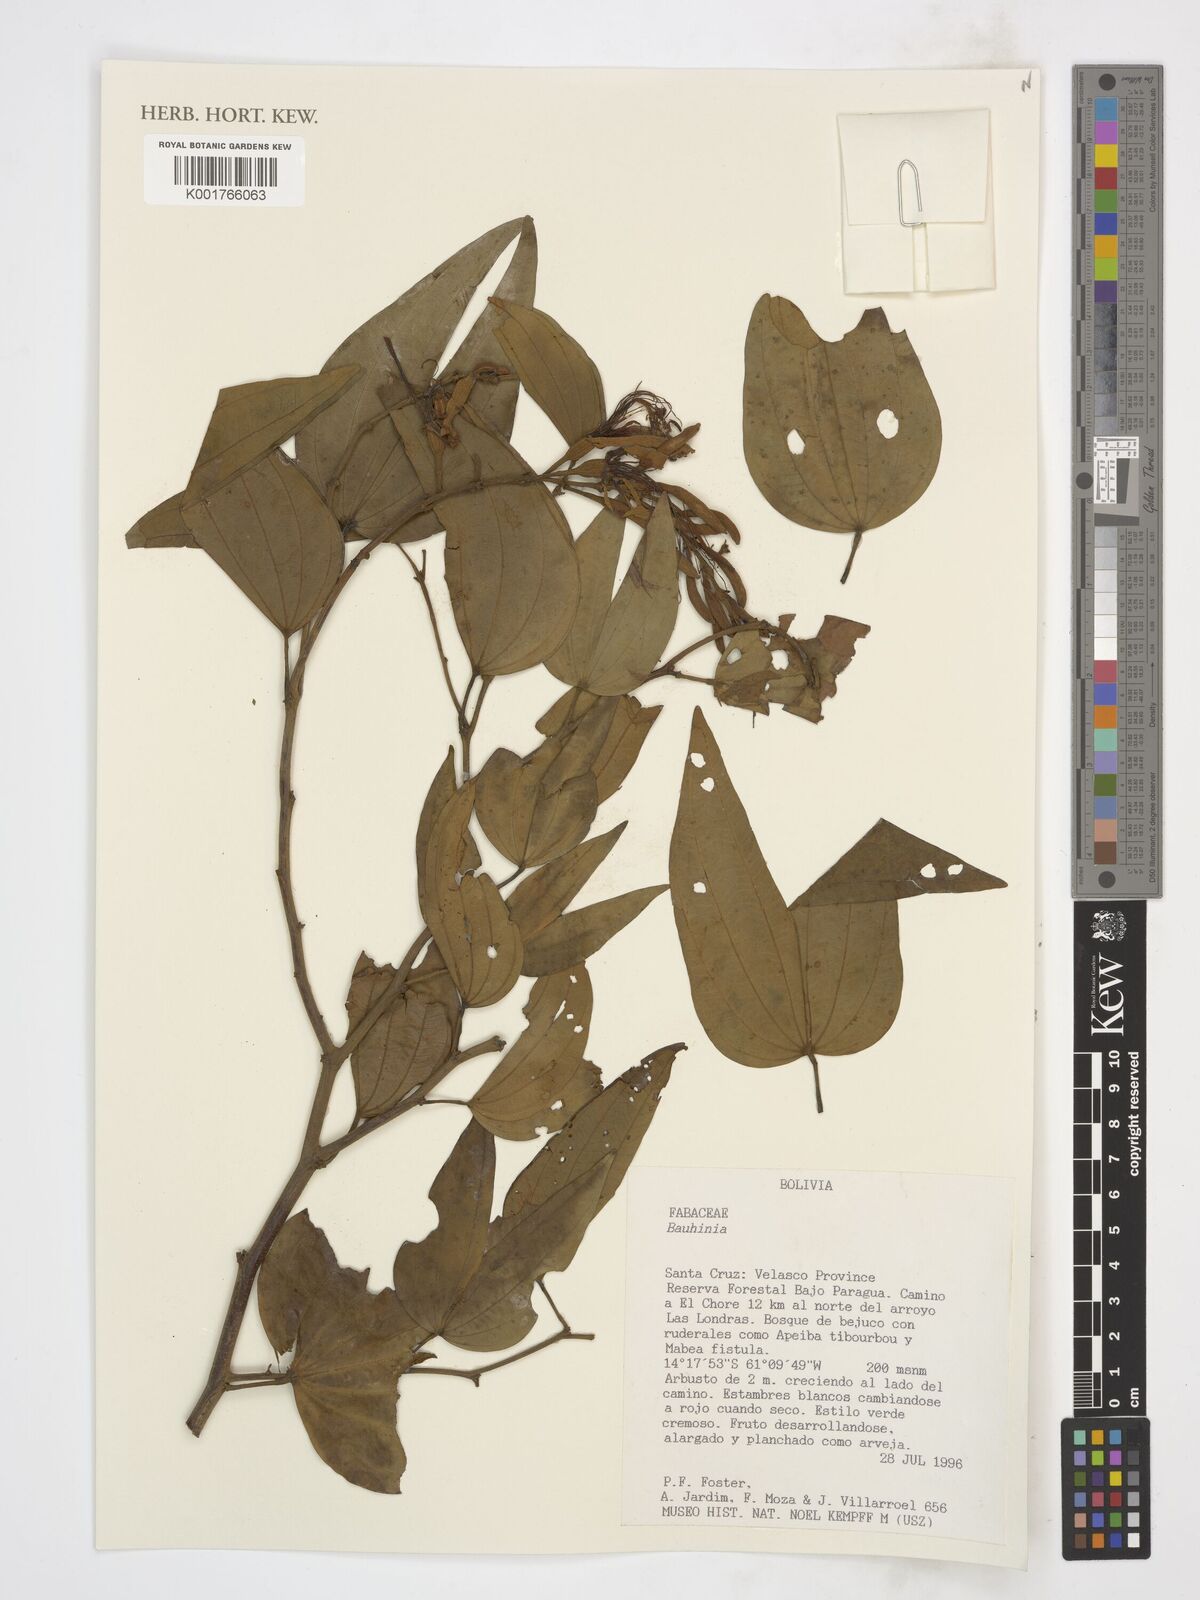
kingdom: Plantae
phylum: Tracheophyta
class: Magnoliopsida
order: Fabales
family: Fabaceae
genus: Bauhinia
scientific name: Bauhinia
